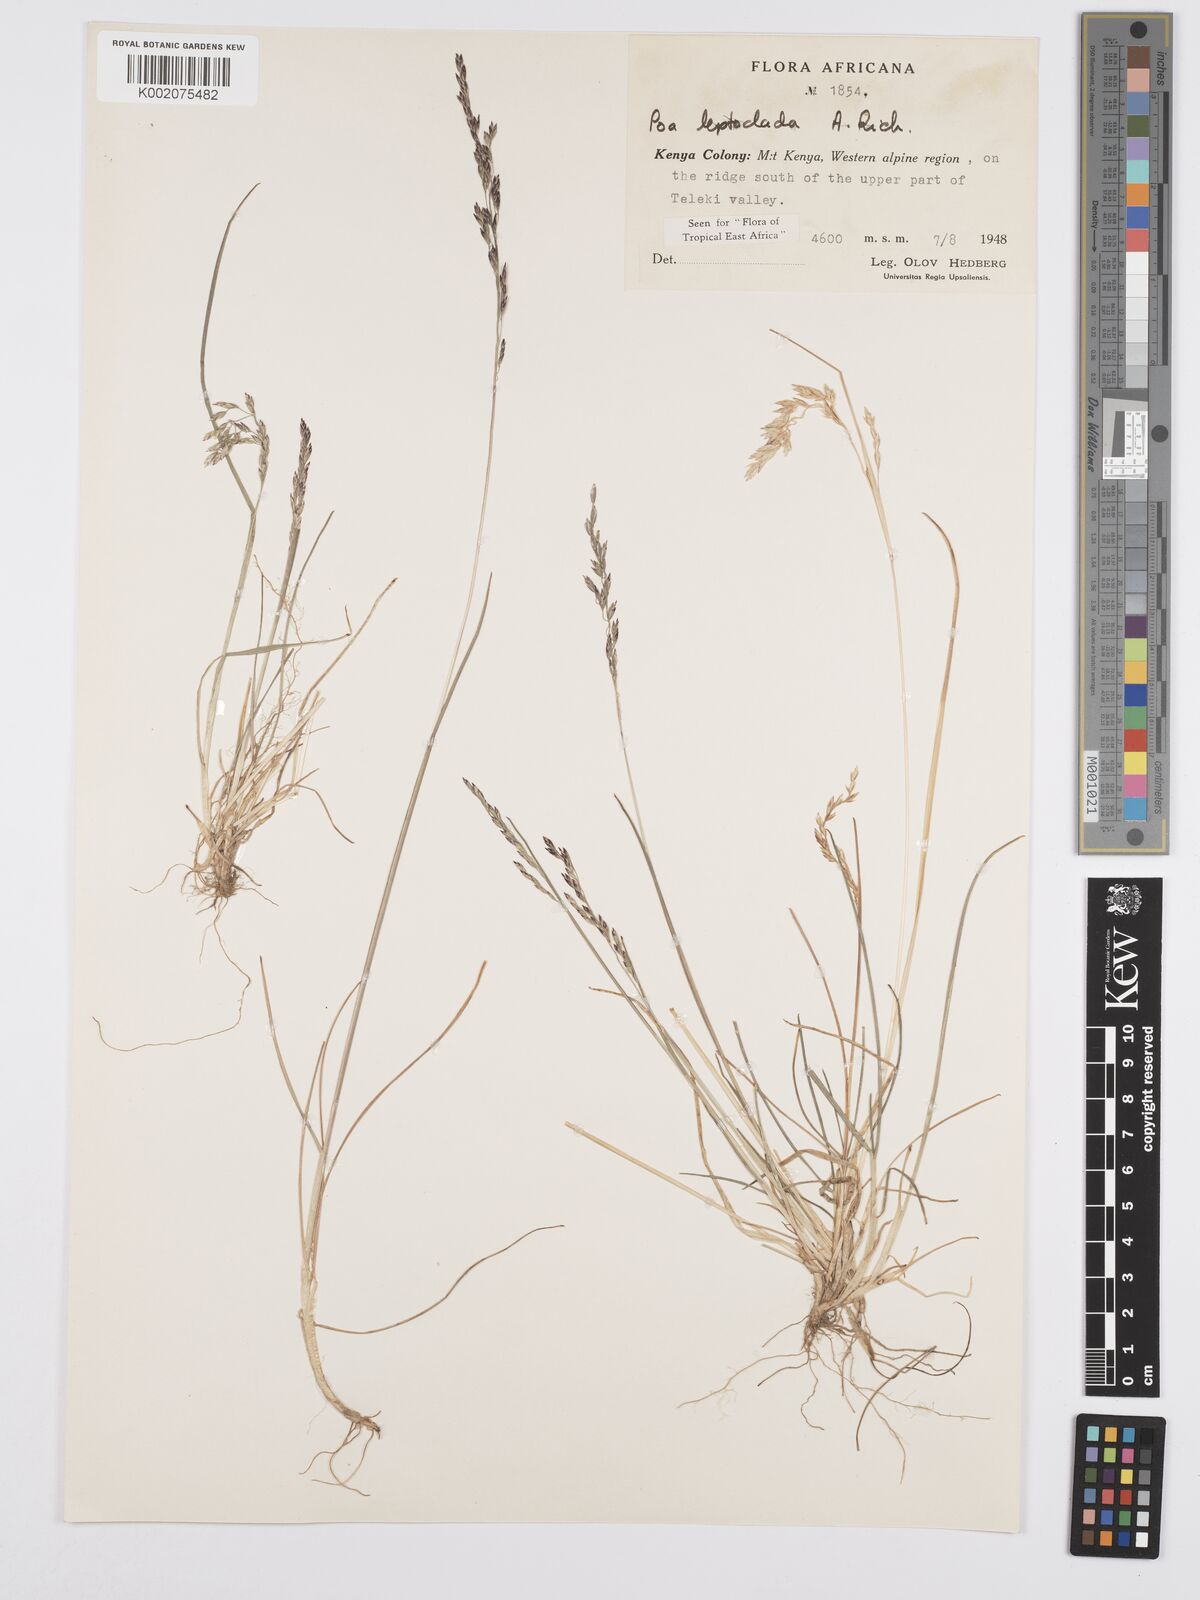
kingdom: Plantae
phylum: Tracheophyta
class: Liliopsida
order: Poales
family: Poaceae
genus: Poa
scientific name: Poa leptoclada
